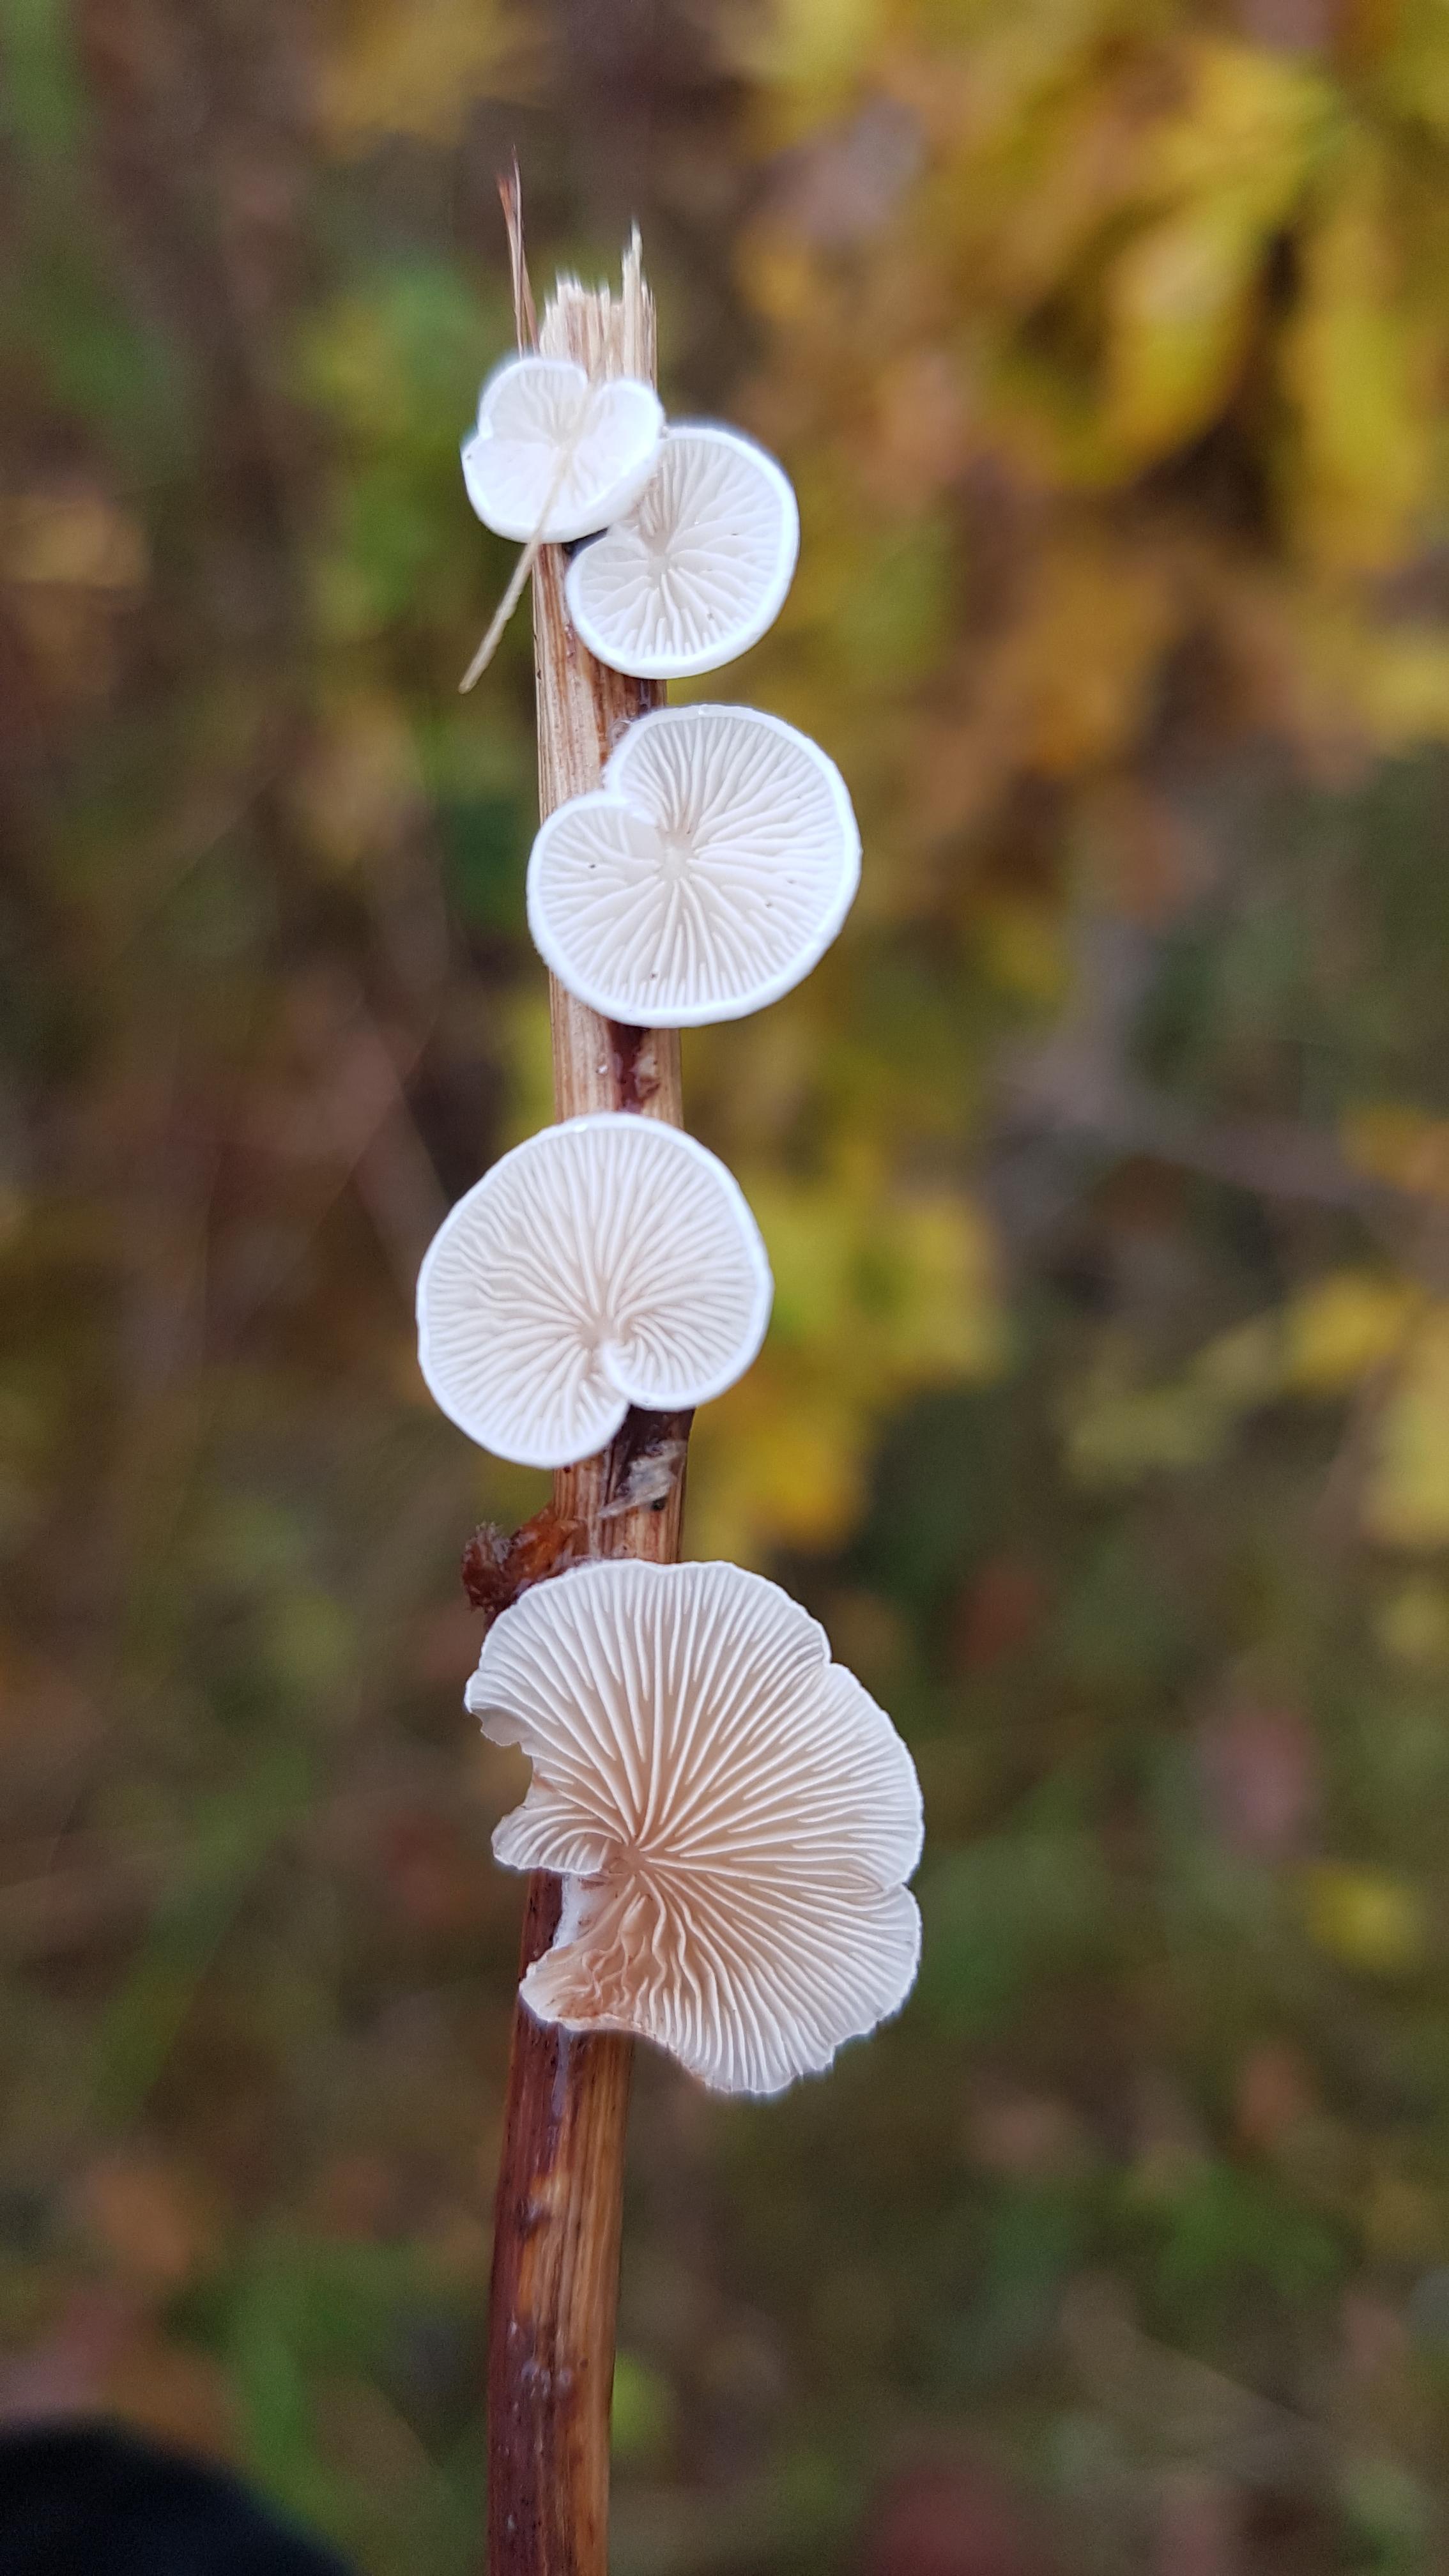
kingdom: Fungi
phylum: Basidiomycota
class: Agaricomycetes
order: Agaricales
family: Crepidotaceae
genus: Crepidotus
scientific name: Crepidotus
